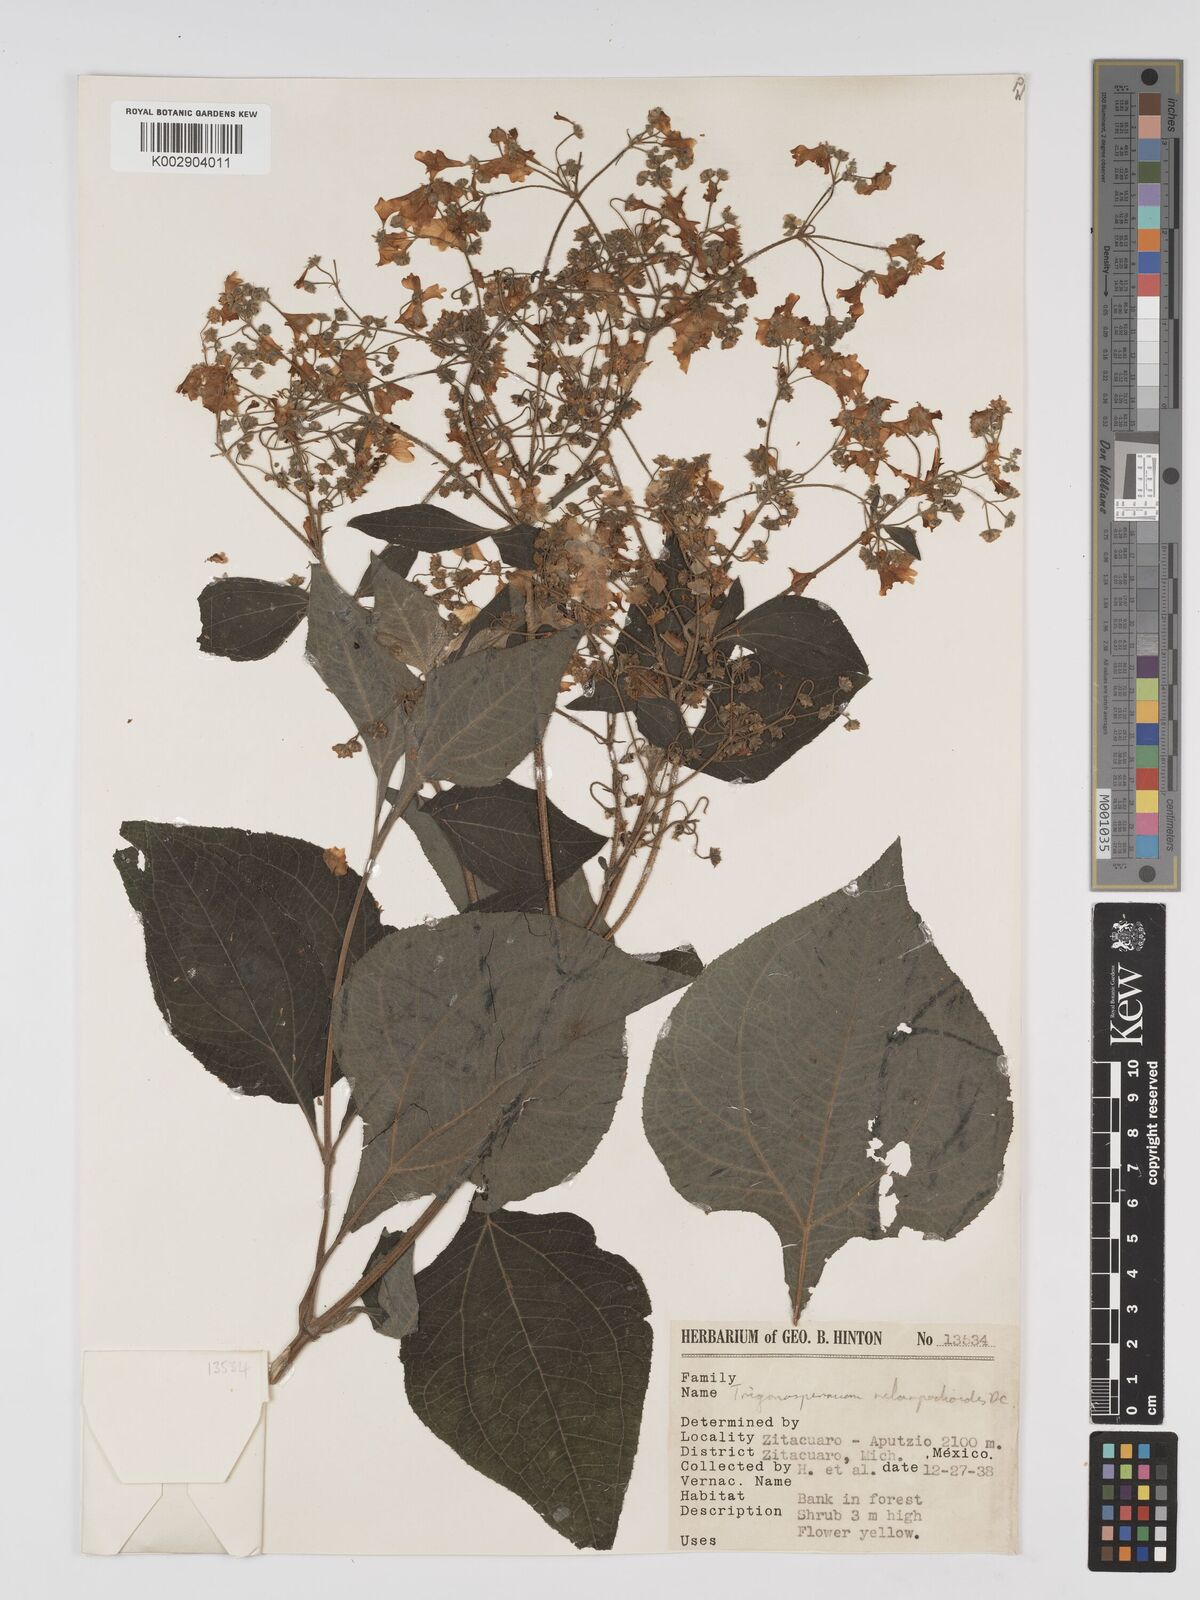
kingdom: Plantae
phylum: Tracheophyta
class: Magnoliopsida
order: Asterales
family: Asteraceae
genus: Trigonospermum
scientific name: Trigonospermum melampodioides
